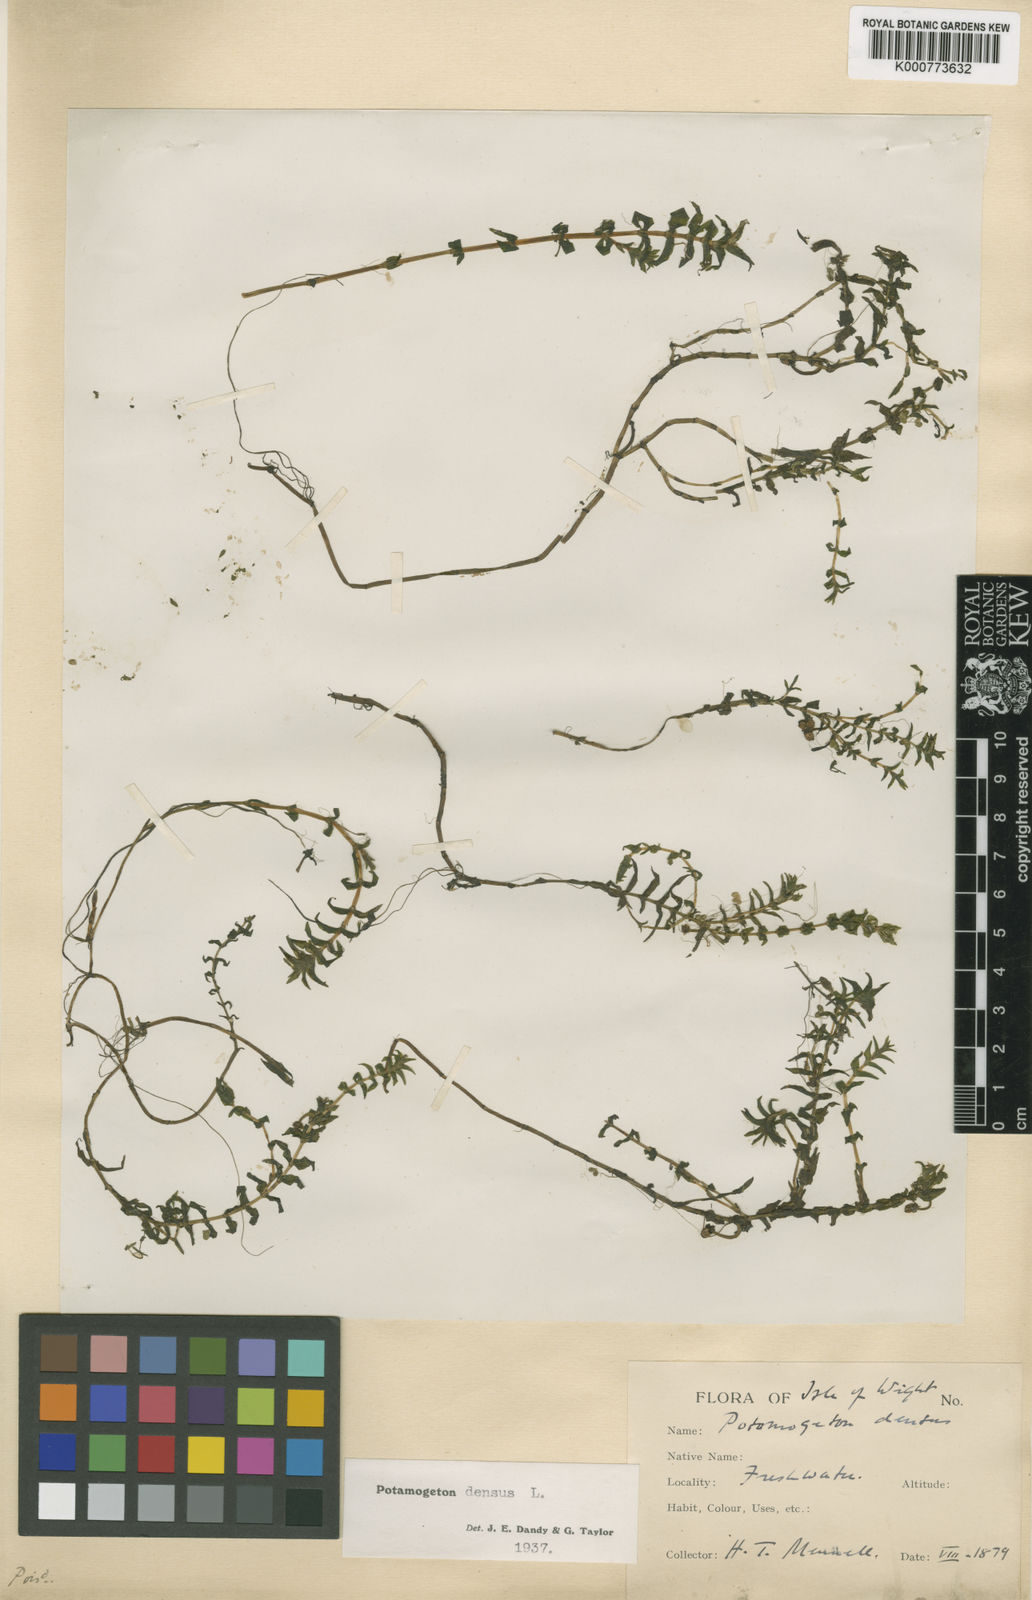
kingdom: Plantae
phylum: Tracheophyta
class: Liliopsida
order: Alismatales
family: Potamogetonaceae
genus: Groenlandia
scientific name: Groenlandia densa
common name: Opposite-leaved pondweed
